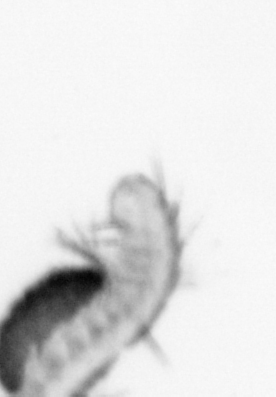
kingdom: Animalia
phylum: Annelida
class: Polychaeta
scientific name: Polychaeta
